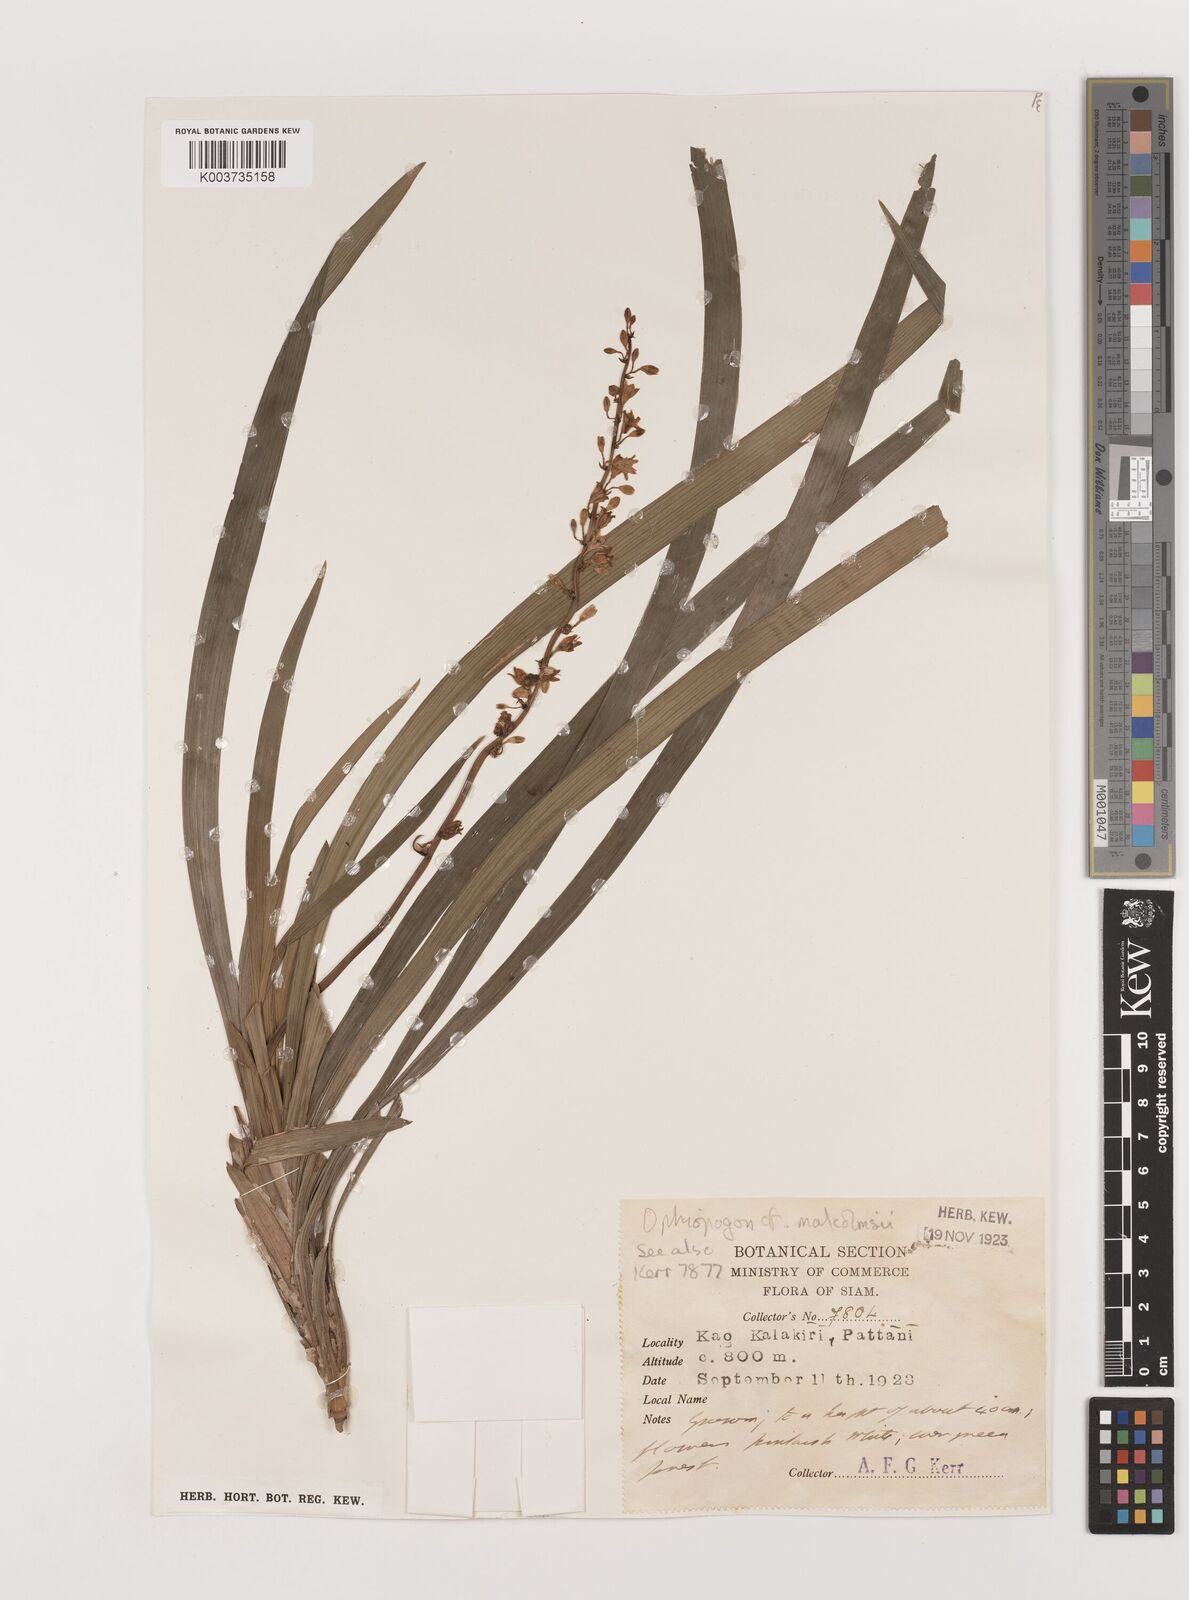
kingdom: Plantae
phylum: Tracheophyta
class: Liliopsida
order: Asparagales
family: Asparagaceae
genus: Ophiopogon
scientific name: Ophiopogon malcolmsonii
